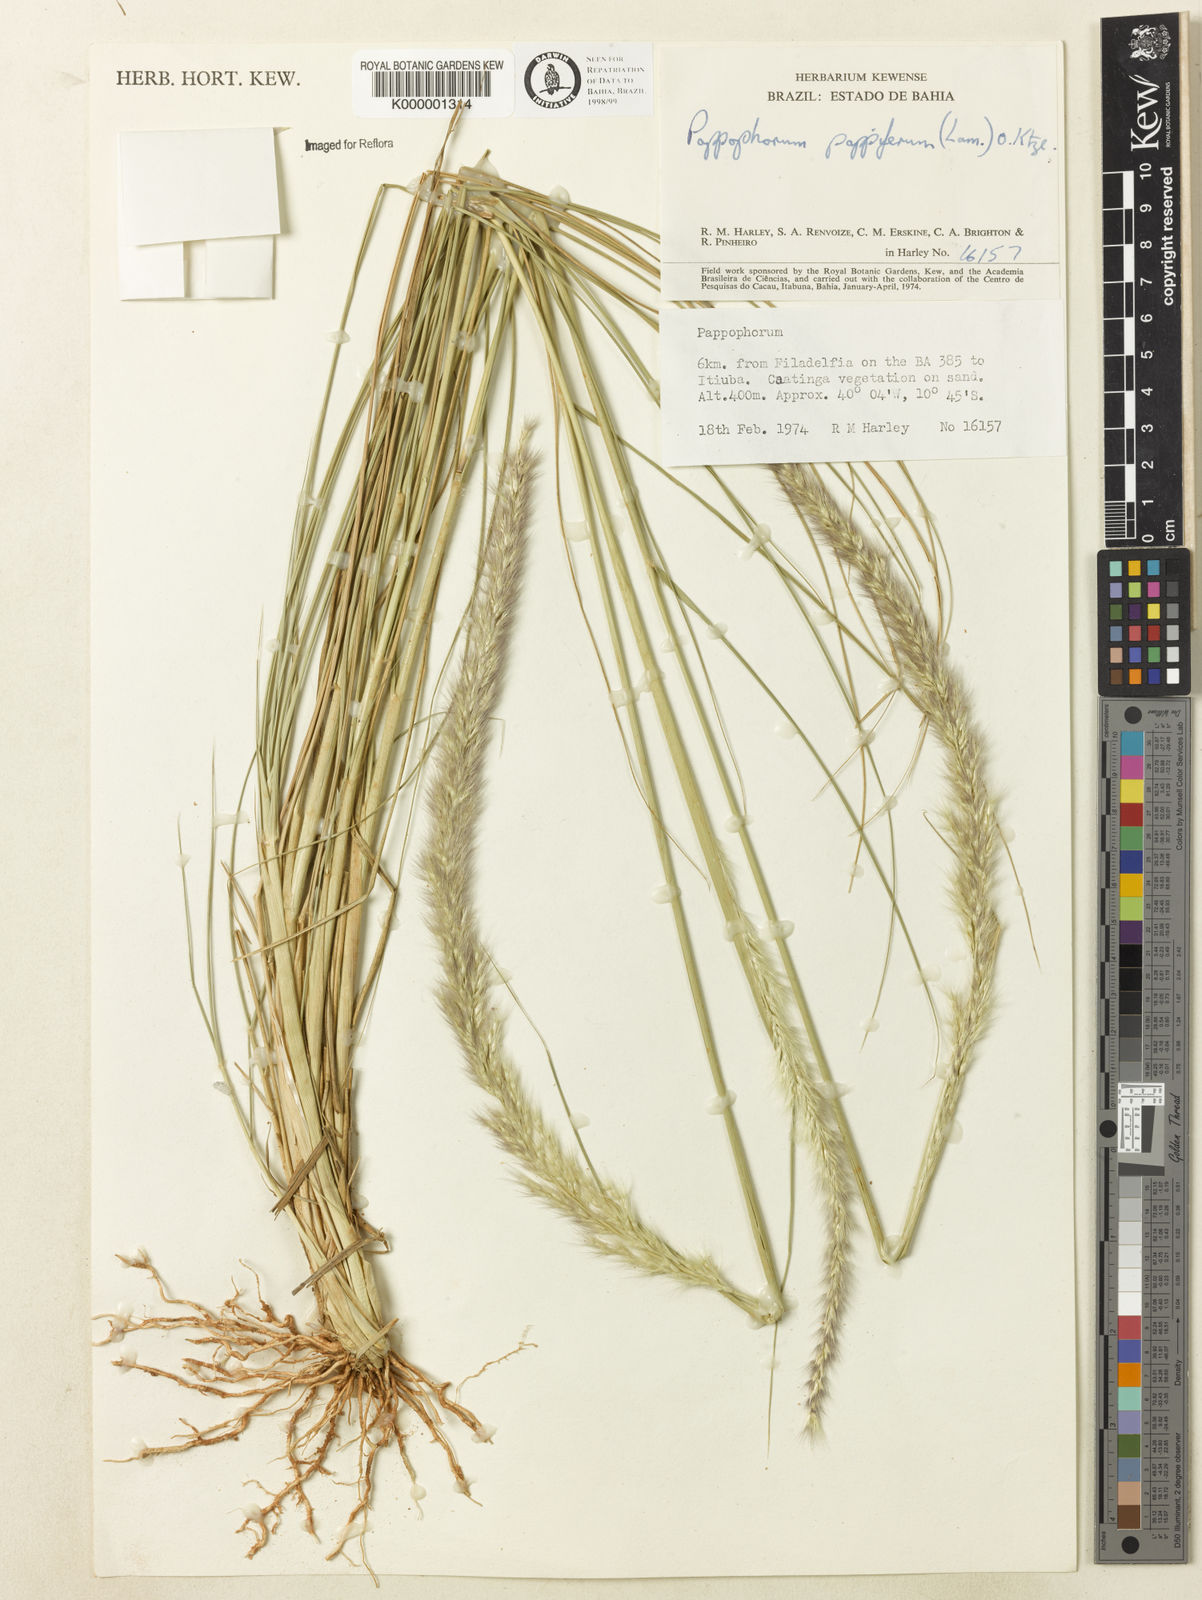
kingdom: Plantae
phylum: Tracheophyta
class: Liliopsida
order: Poales
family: Poaceae
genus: Pappophorum
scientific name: Pappophorum krapovickasii
